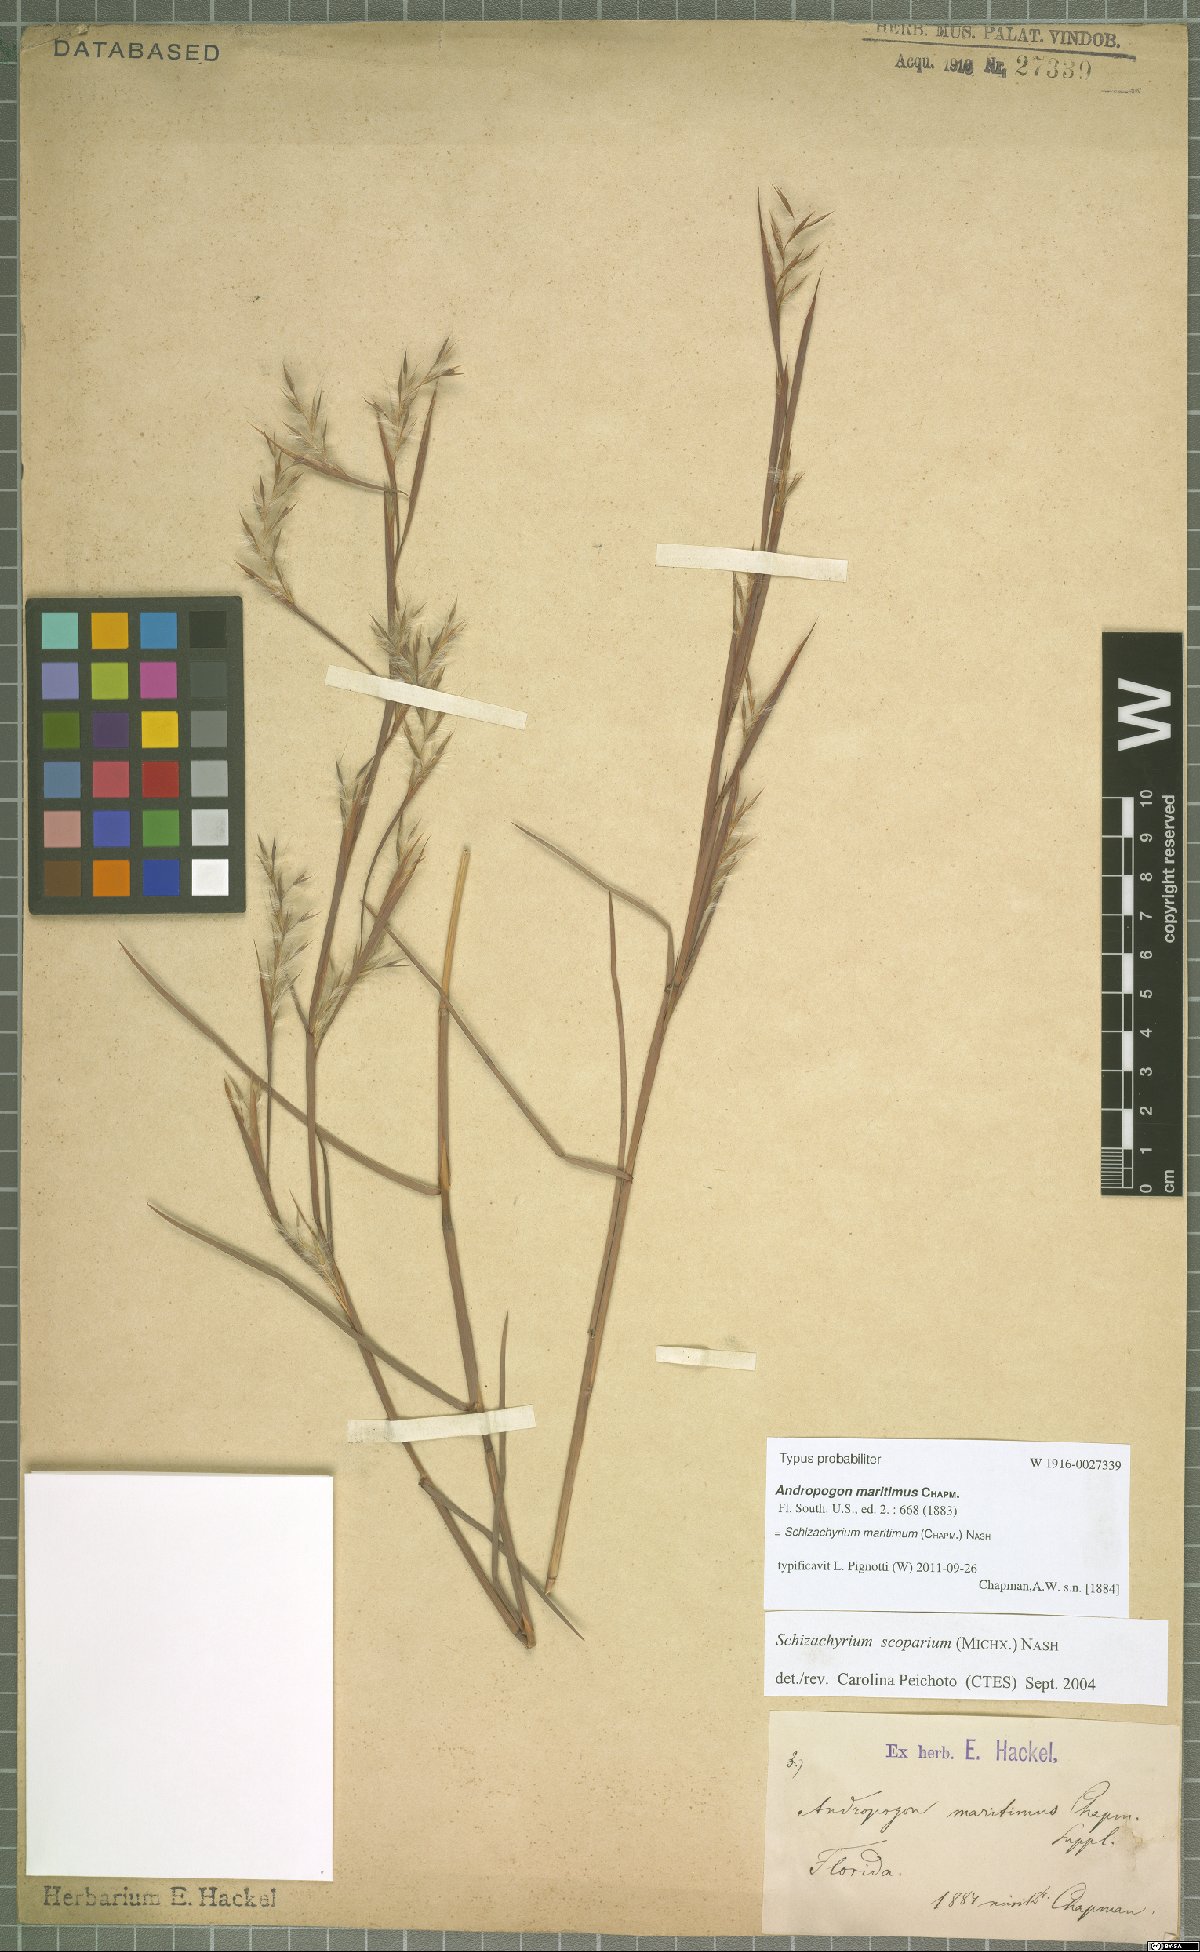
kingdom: Plantae
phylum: Tracheophyta
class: Liliopsida
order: Poales
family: Poaceae
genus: Schizachyrium
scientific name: Schizachyrium maritimum
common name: Gulf bluestem
